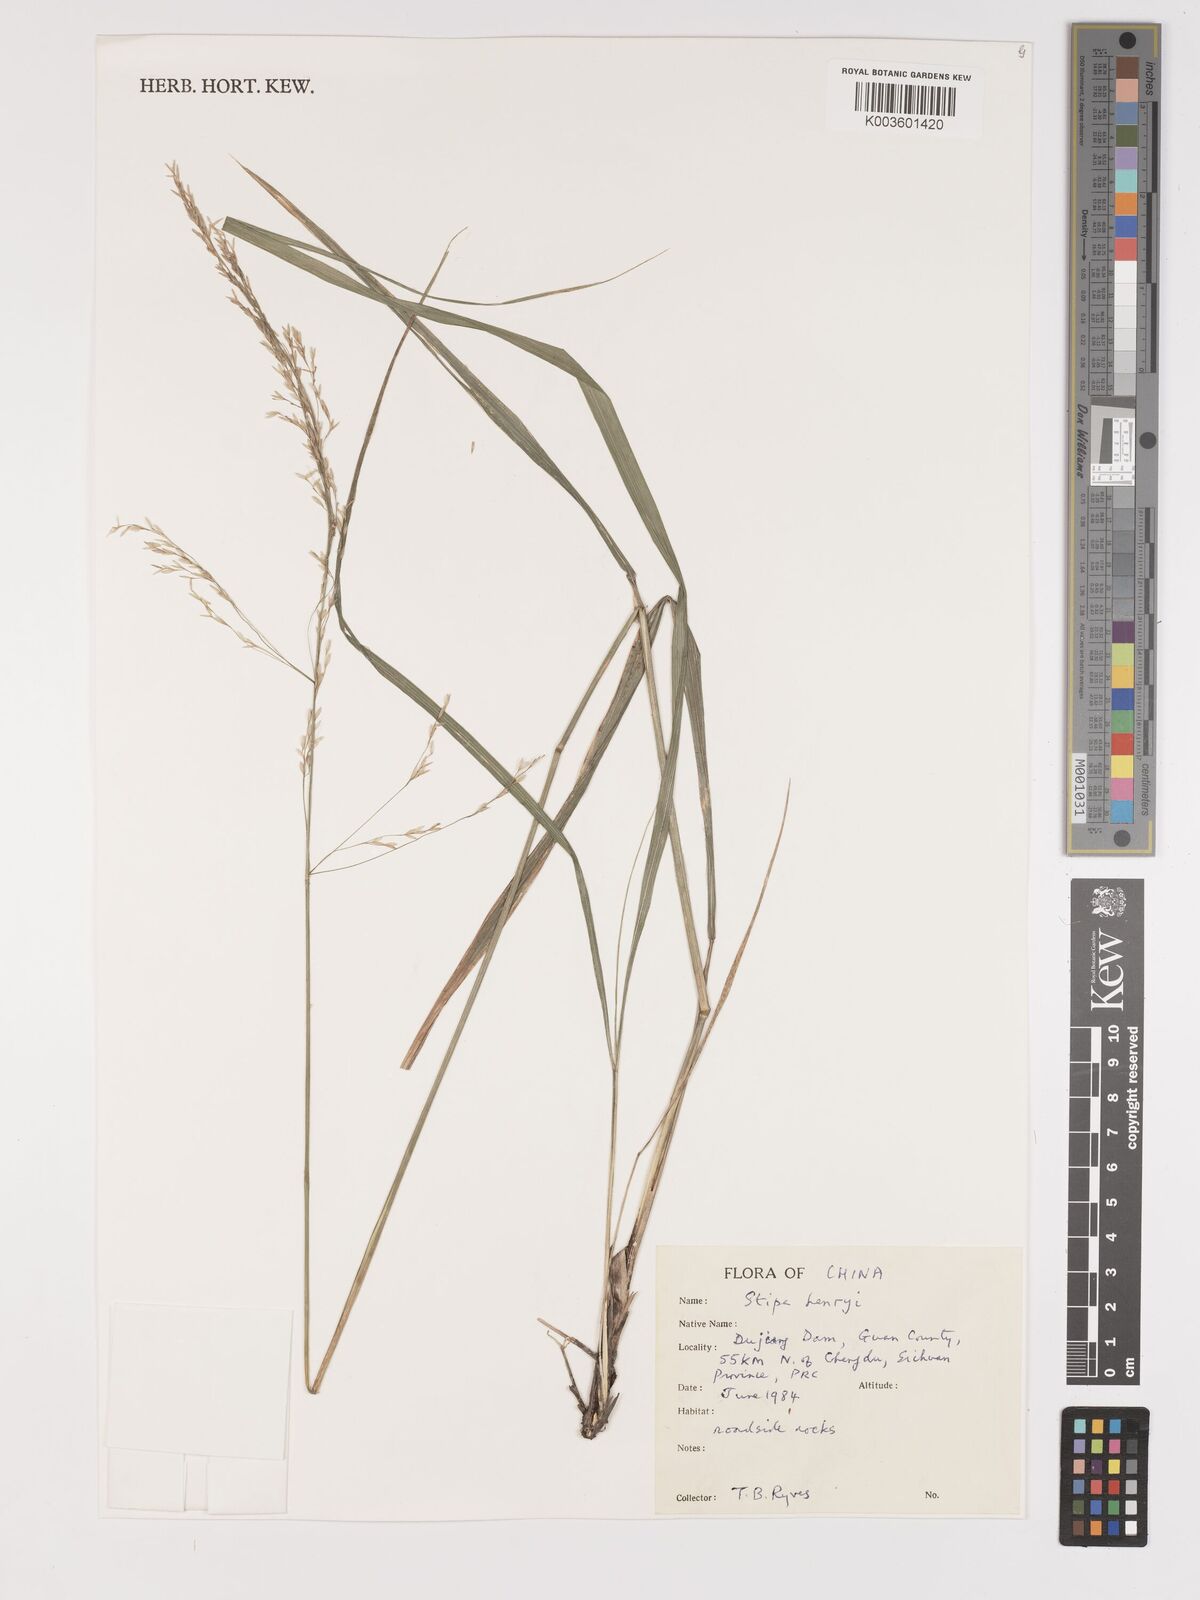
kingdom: Plantae
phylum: Tracheophyta
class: Liliopsida
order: Poales
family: Poaceae
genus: Stipa
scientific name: Stipa henryi
